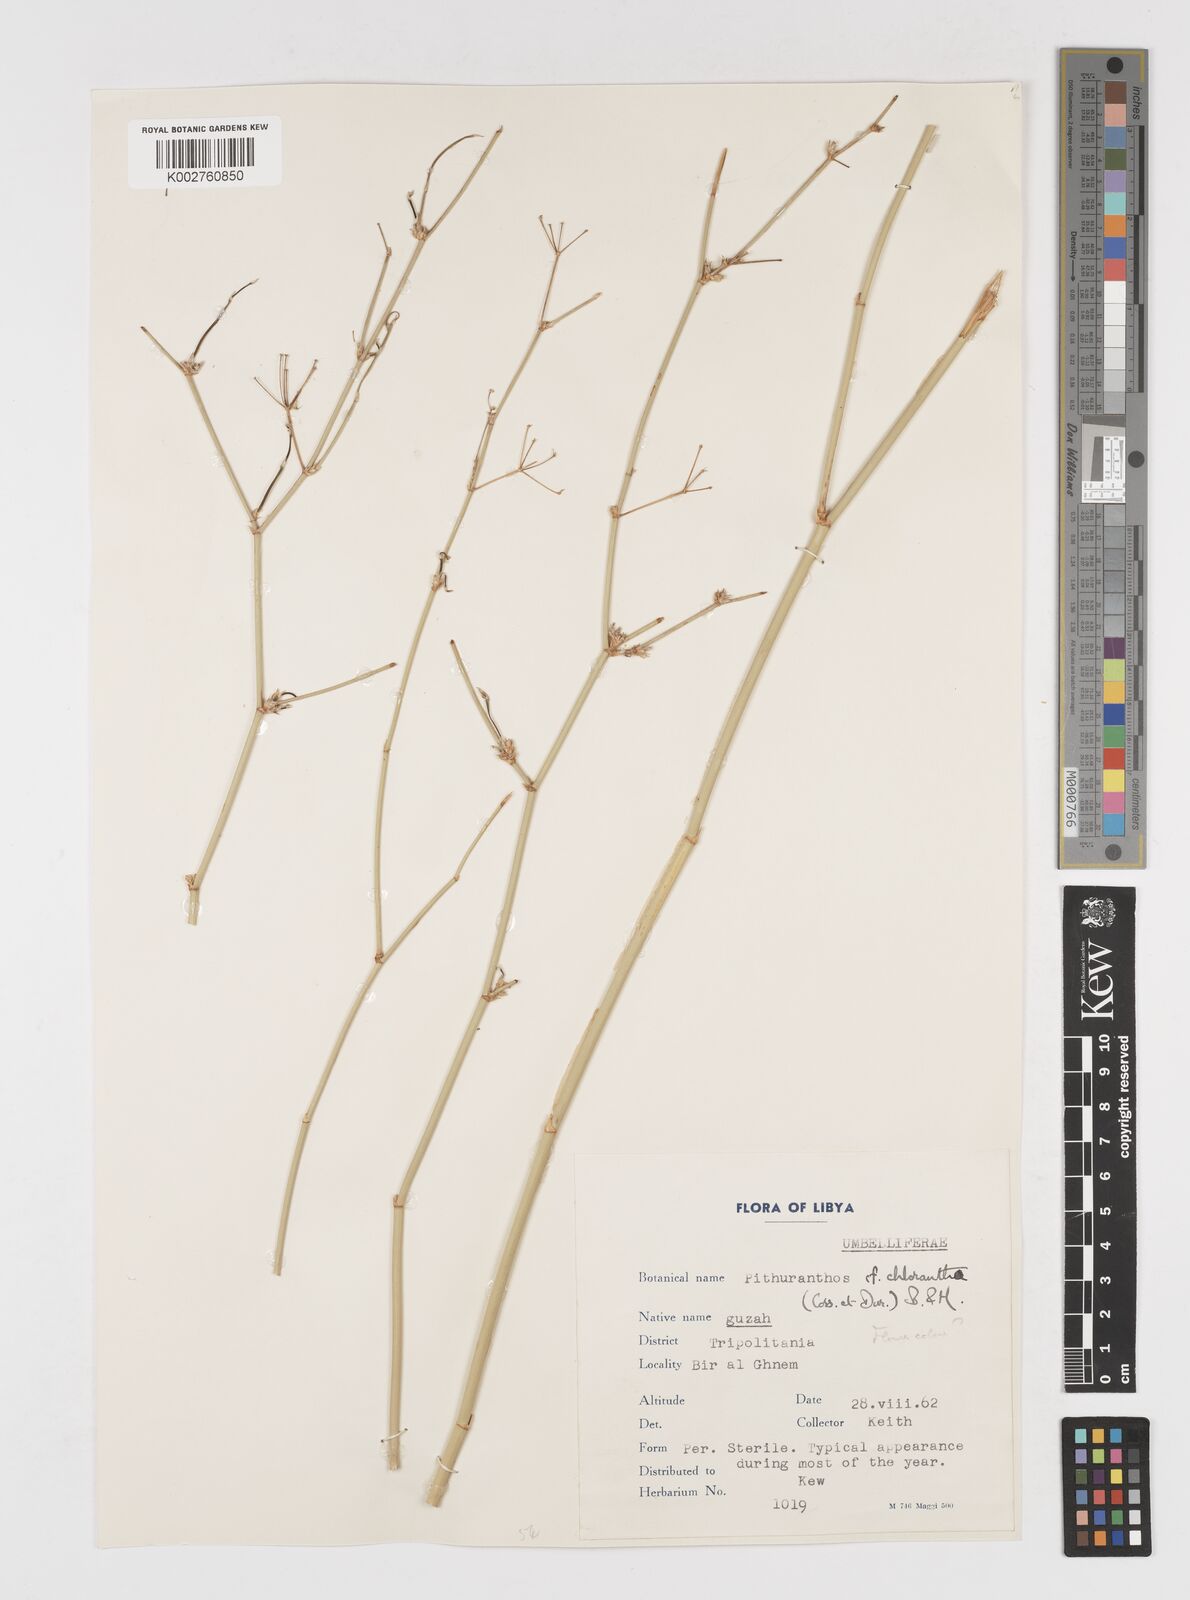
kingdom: Plantae
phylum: Tracheophyta
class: Magnoliopsida
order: Apiales
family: Apiaceae
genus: Deverra
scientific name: Deverra denudata
